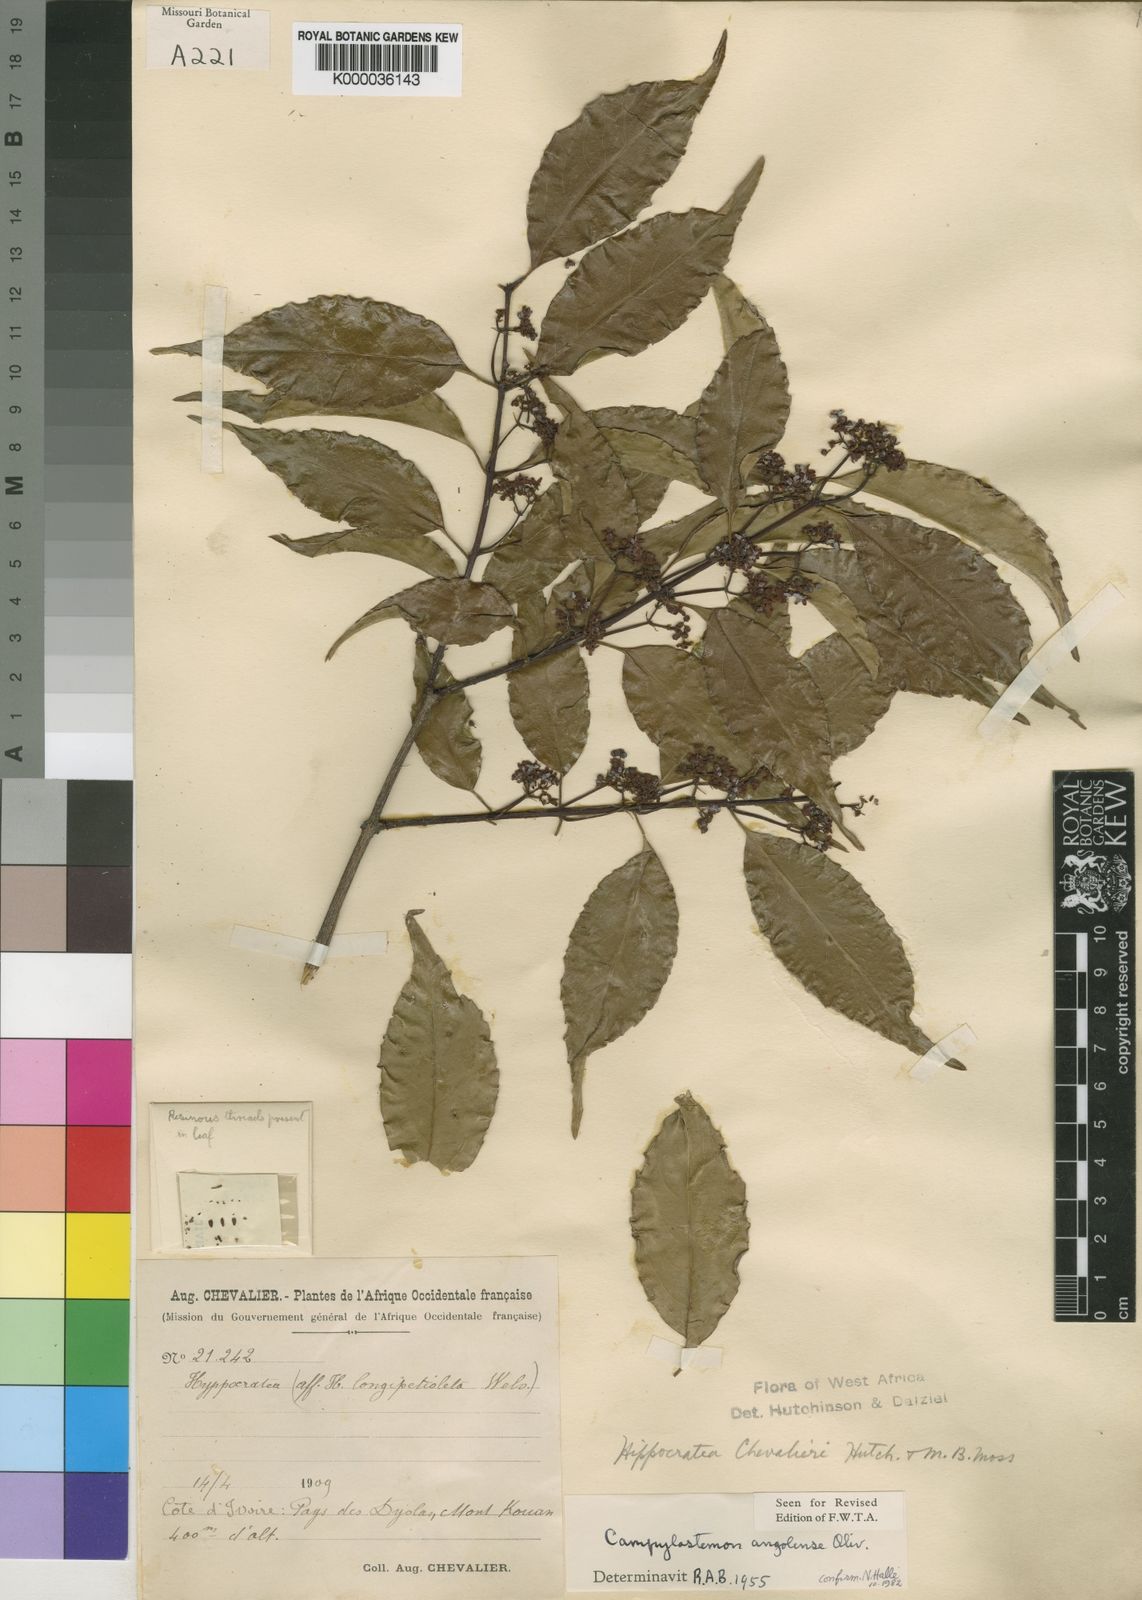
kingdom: Plantae
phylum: Tracheophyta
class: Magnoliopsida
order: Celastrales
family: Celastraceae
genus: Campylostemon
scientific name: Campylostemon
